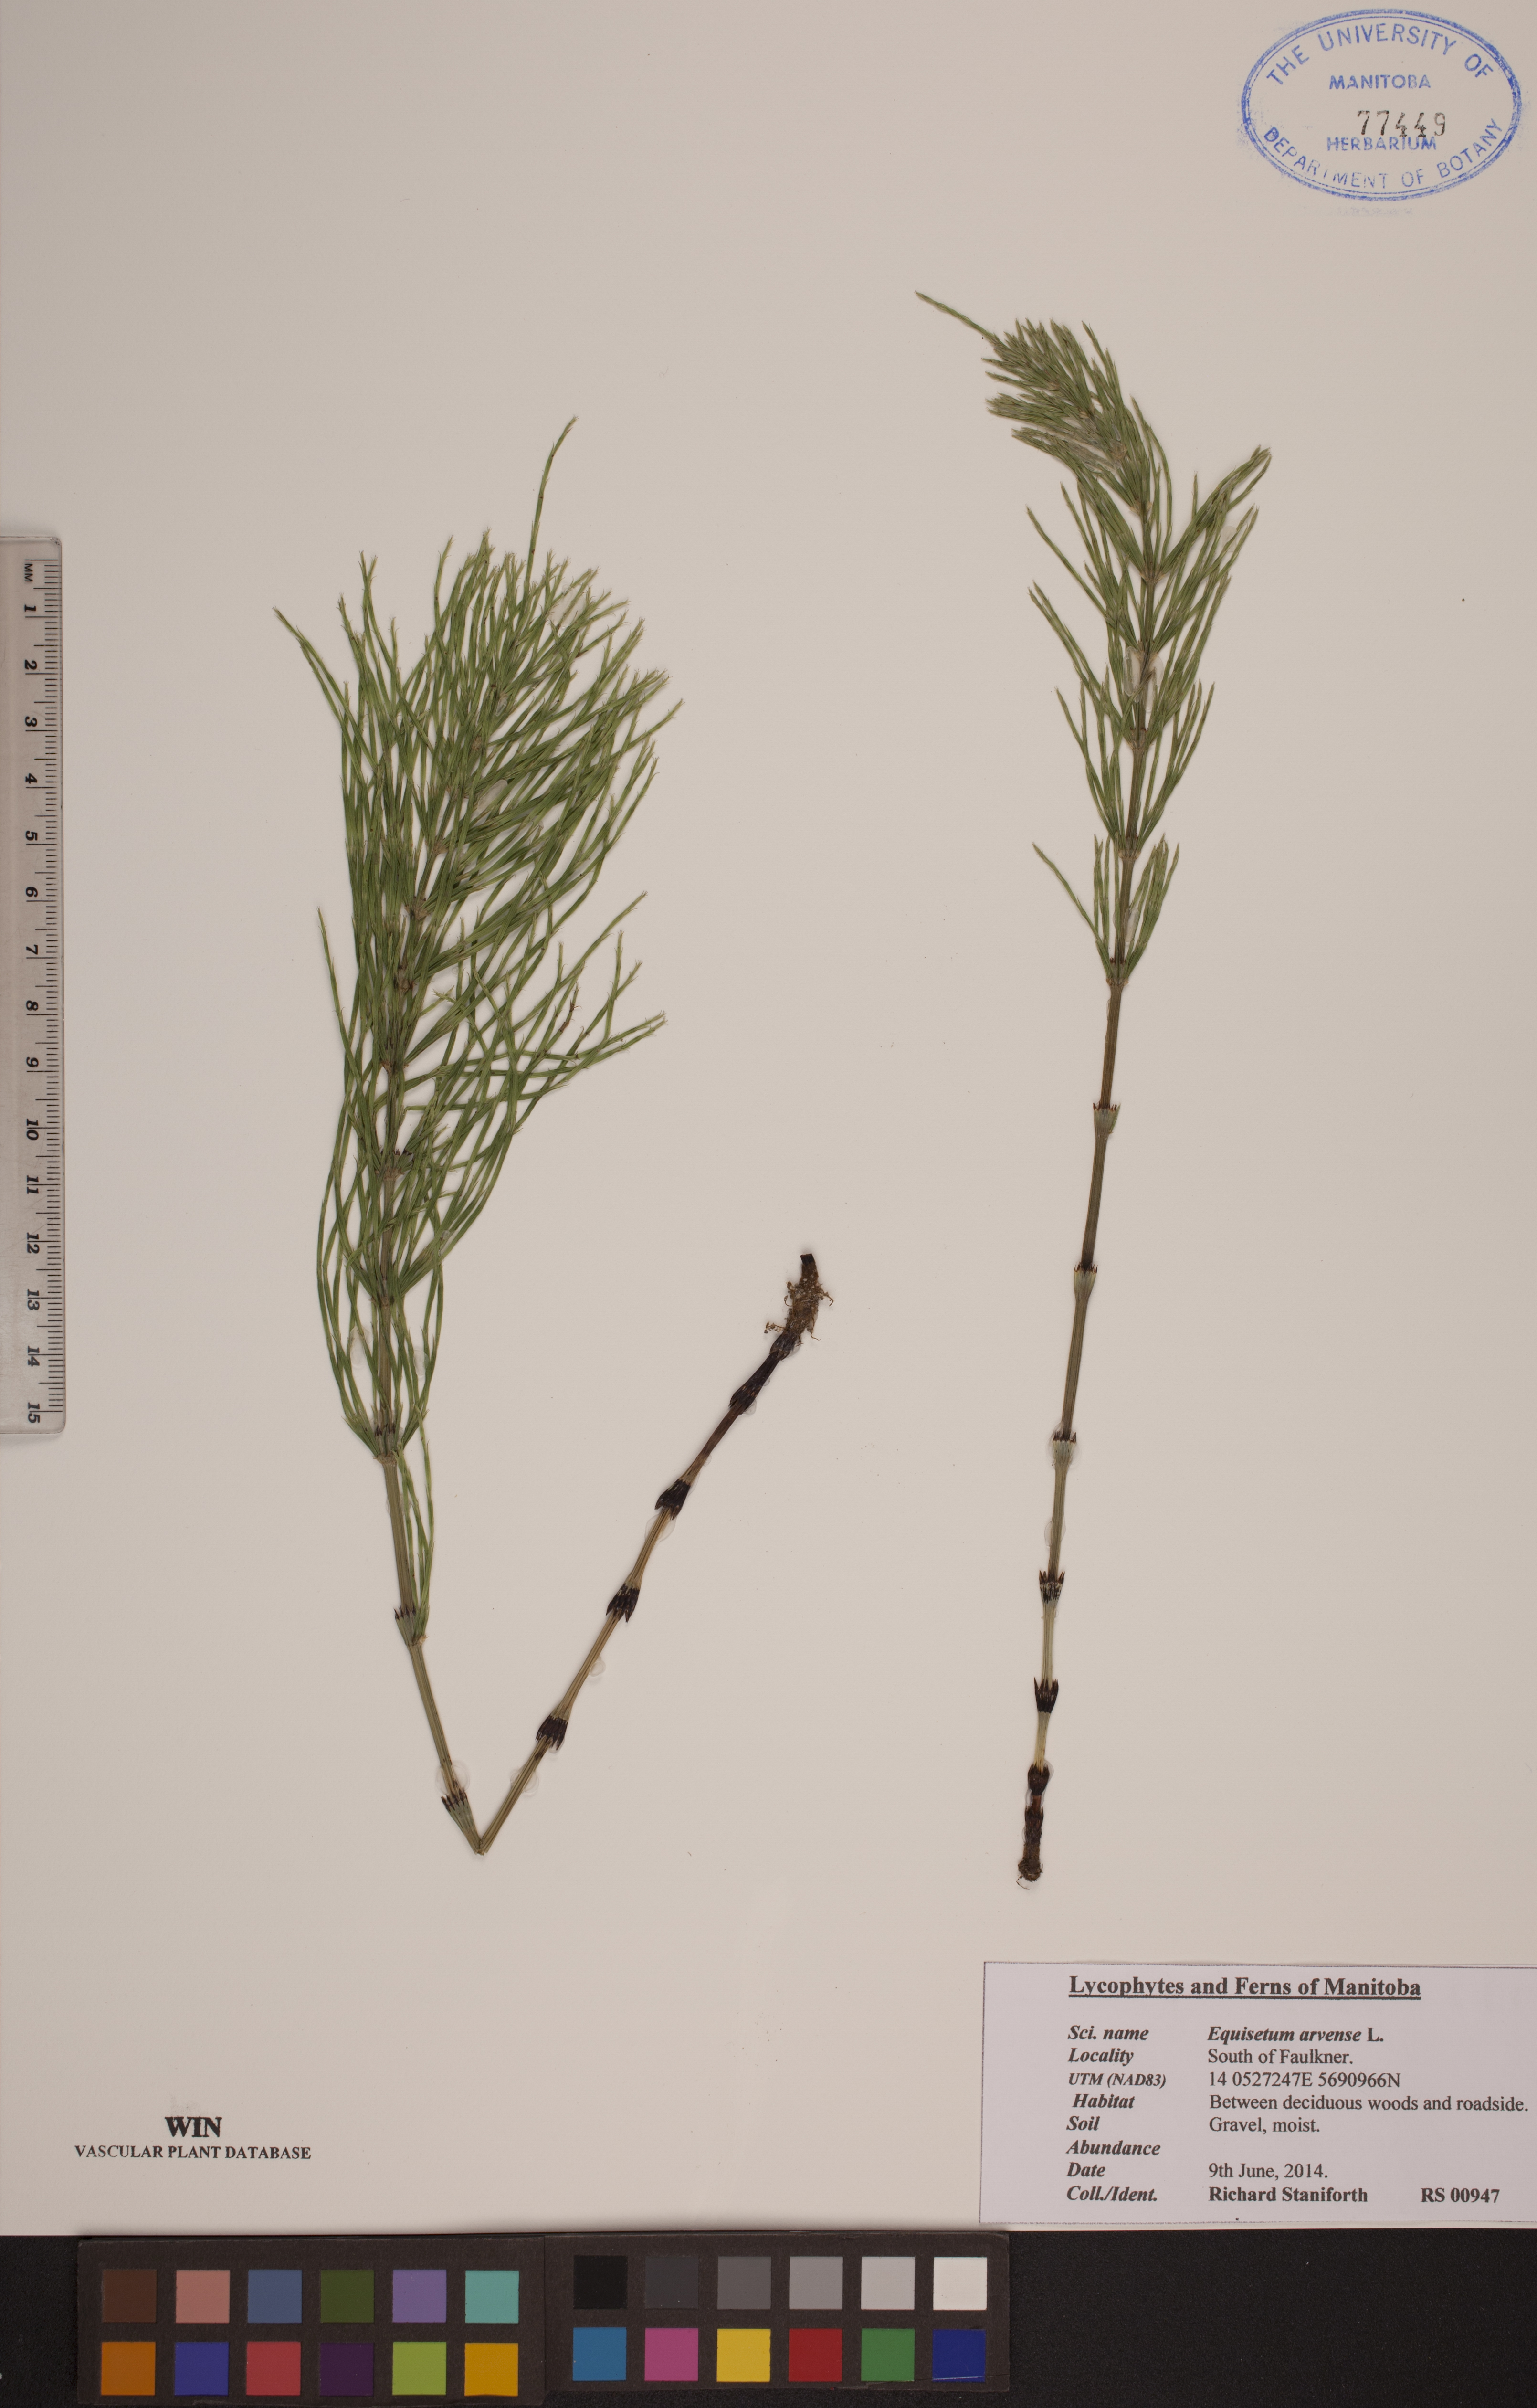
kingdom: Plantae
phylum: Tracheophyta
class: Polypodiopsida
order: Equisetales
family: Equisetaceae
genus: Equisetum
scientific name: Equisetum arvense
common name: Field horsetail
